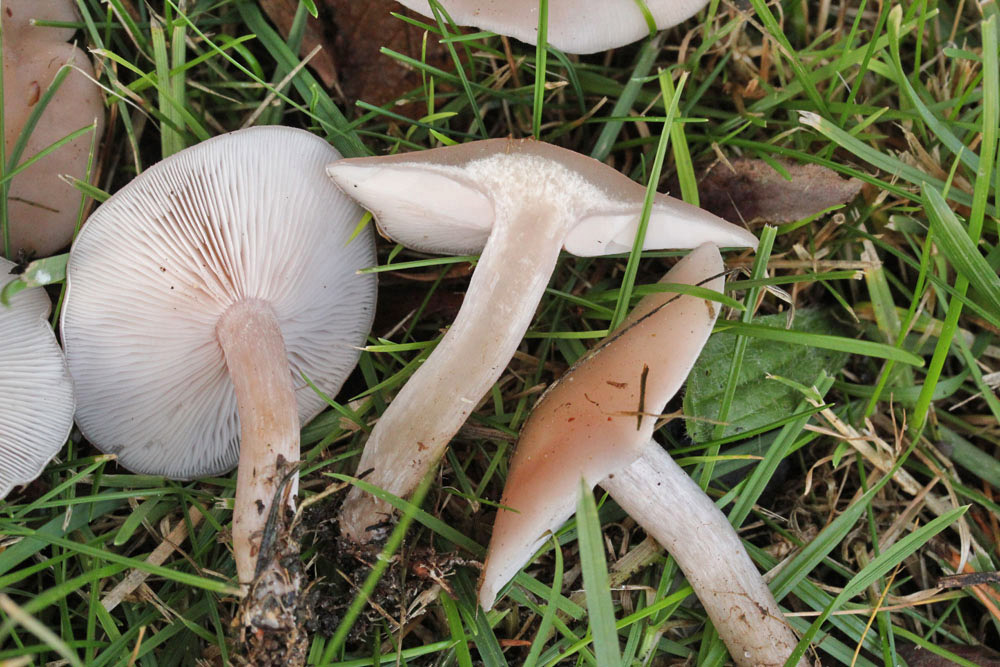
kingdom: Fungi
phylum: Basidiomycota
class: Agaricomycetes
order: Agaricales
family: Lyophyllaceae
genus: Calocybe
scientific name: Calocybe carnea
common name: rosa fagerhat
